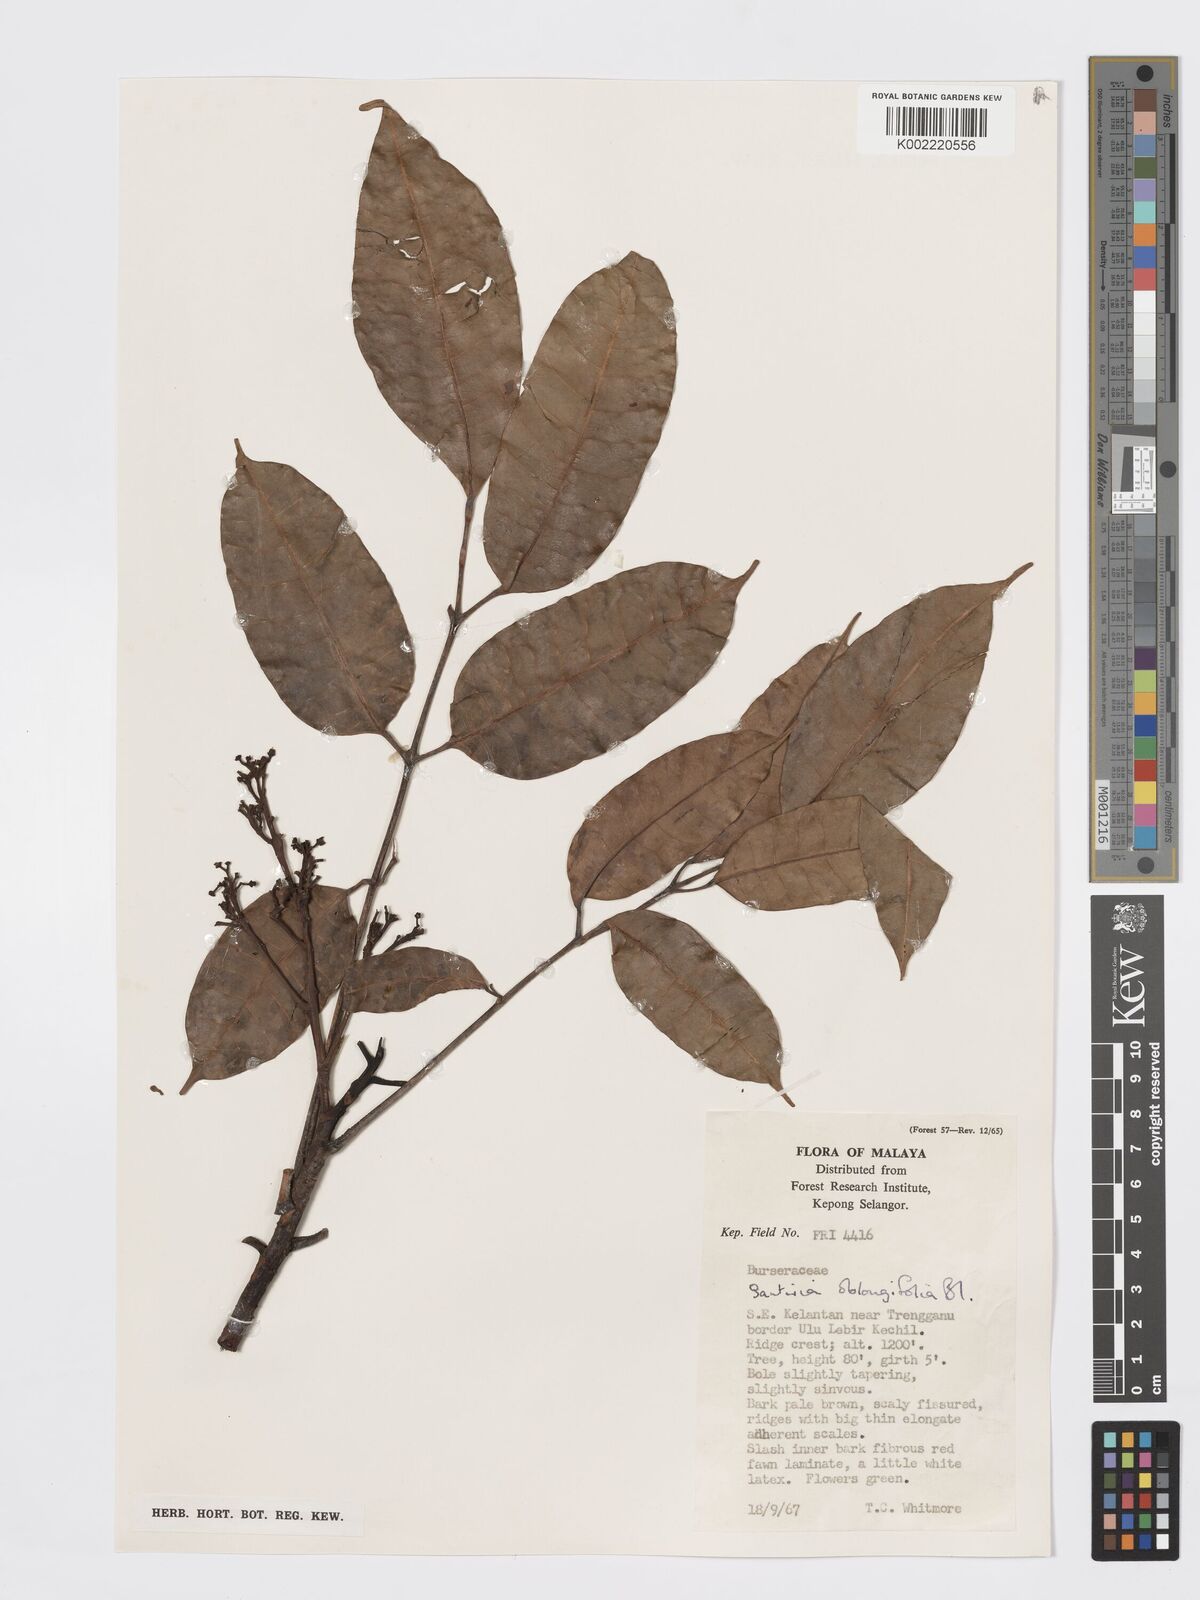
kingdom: Plantae
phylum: Tracheophyta
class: Magnoliopsida
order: Sapindales
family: Burseraceae
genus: Santiria
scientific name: Santiria oblongifolia
